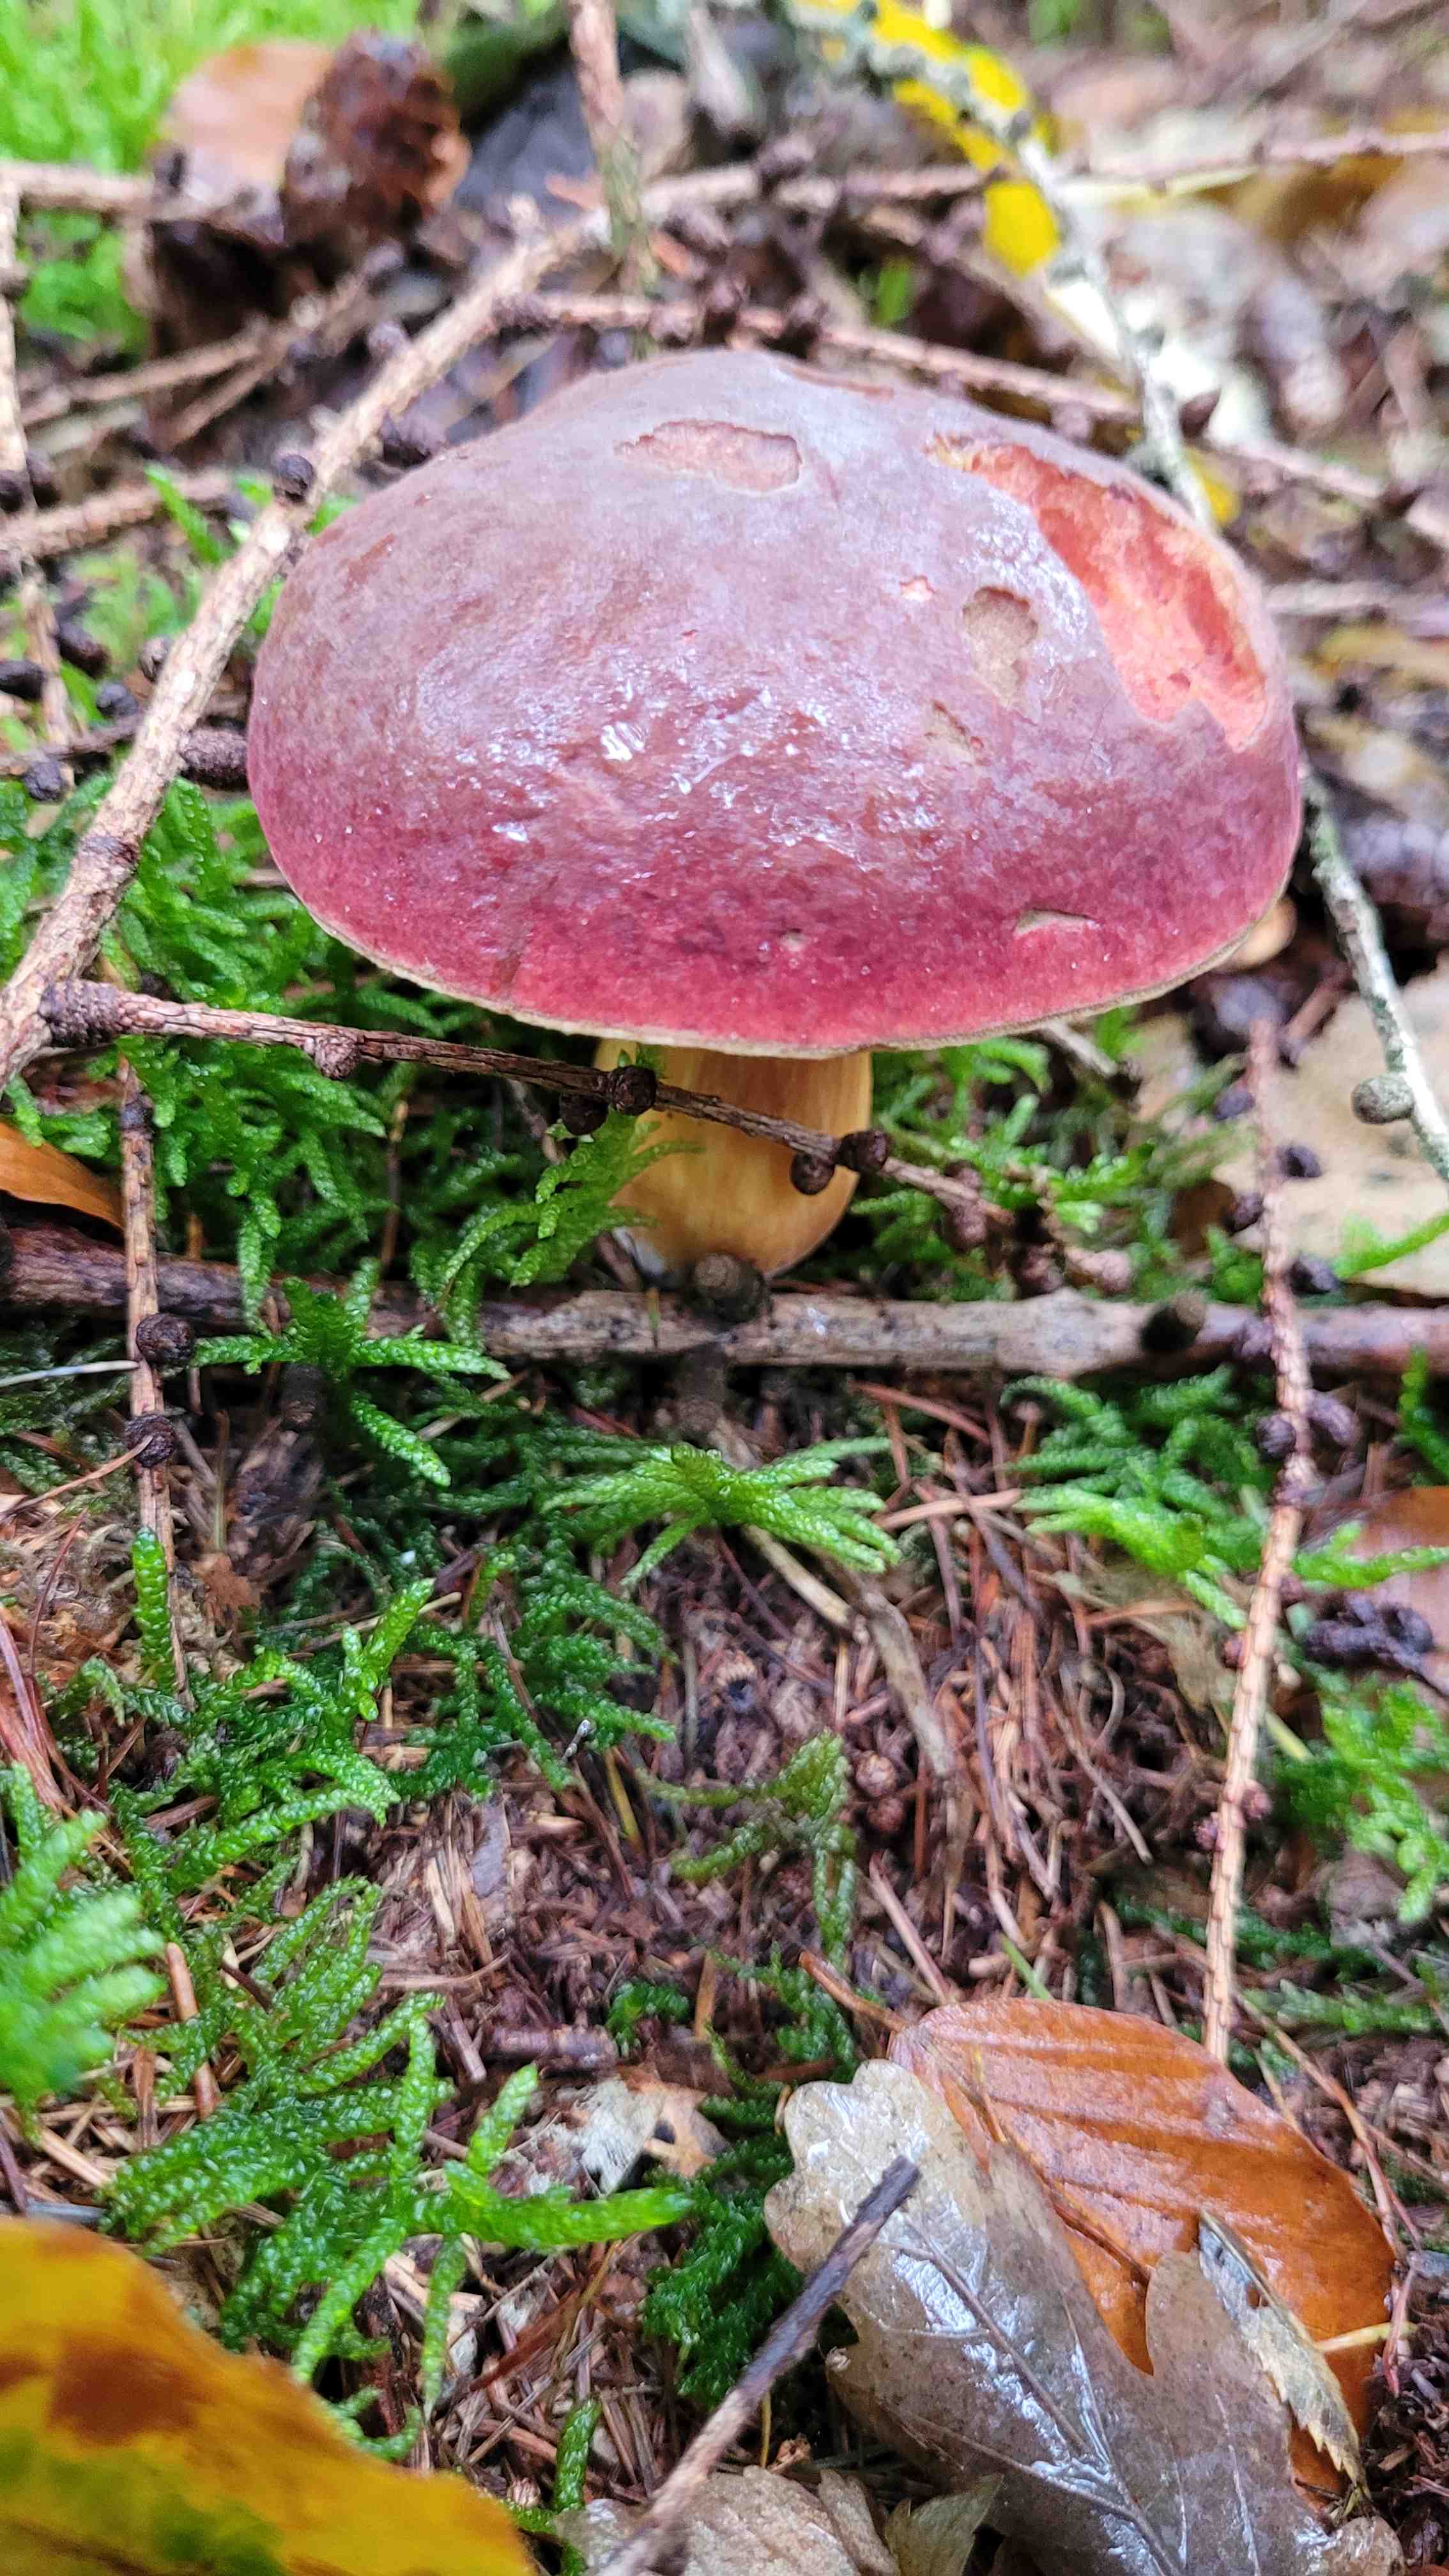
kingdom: Fungi
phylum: Basidiomycota
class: Agaricomycetes
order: Boletales
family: Boletaceae
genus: Xerocomellus
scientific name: Xerocomellus pruinatus
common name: dugget rørhat
